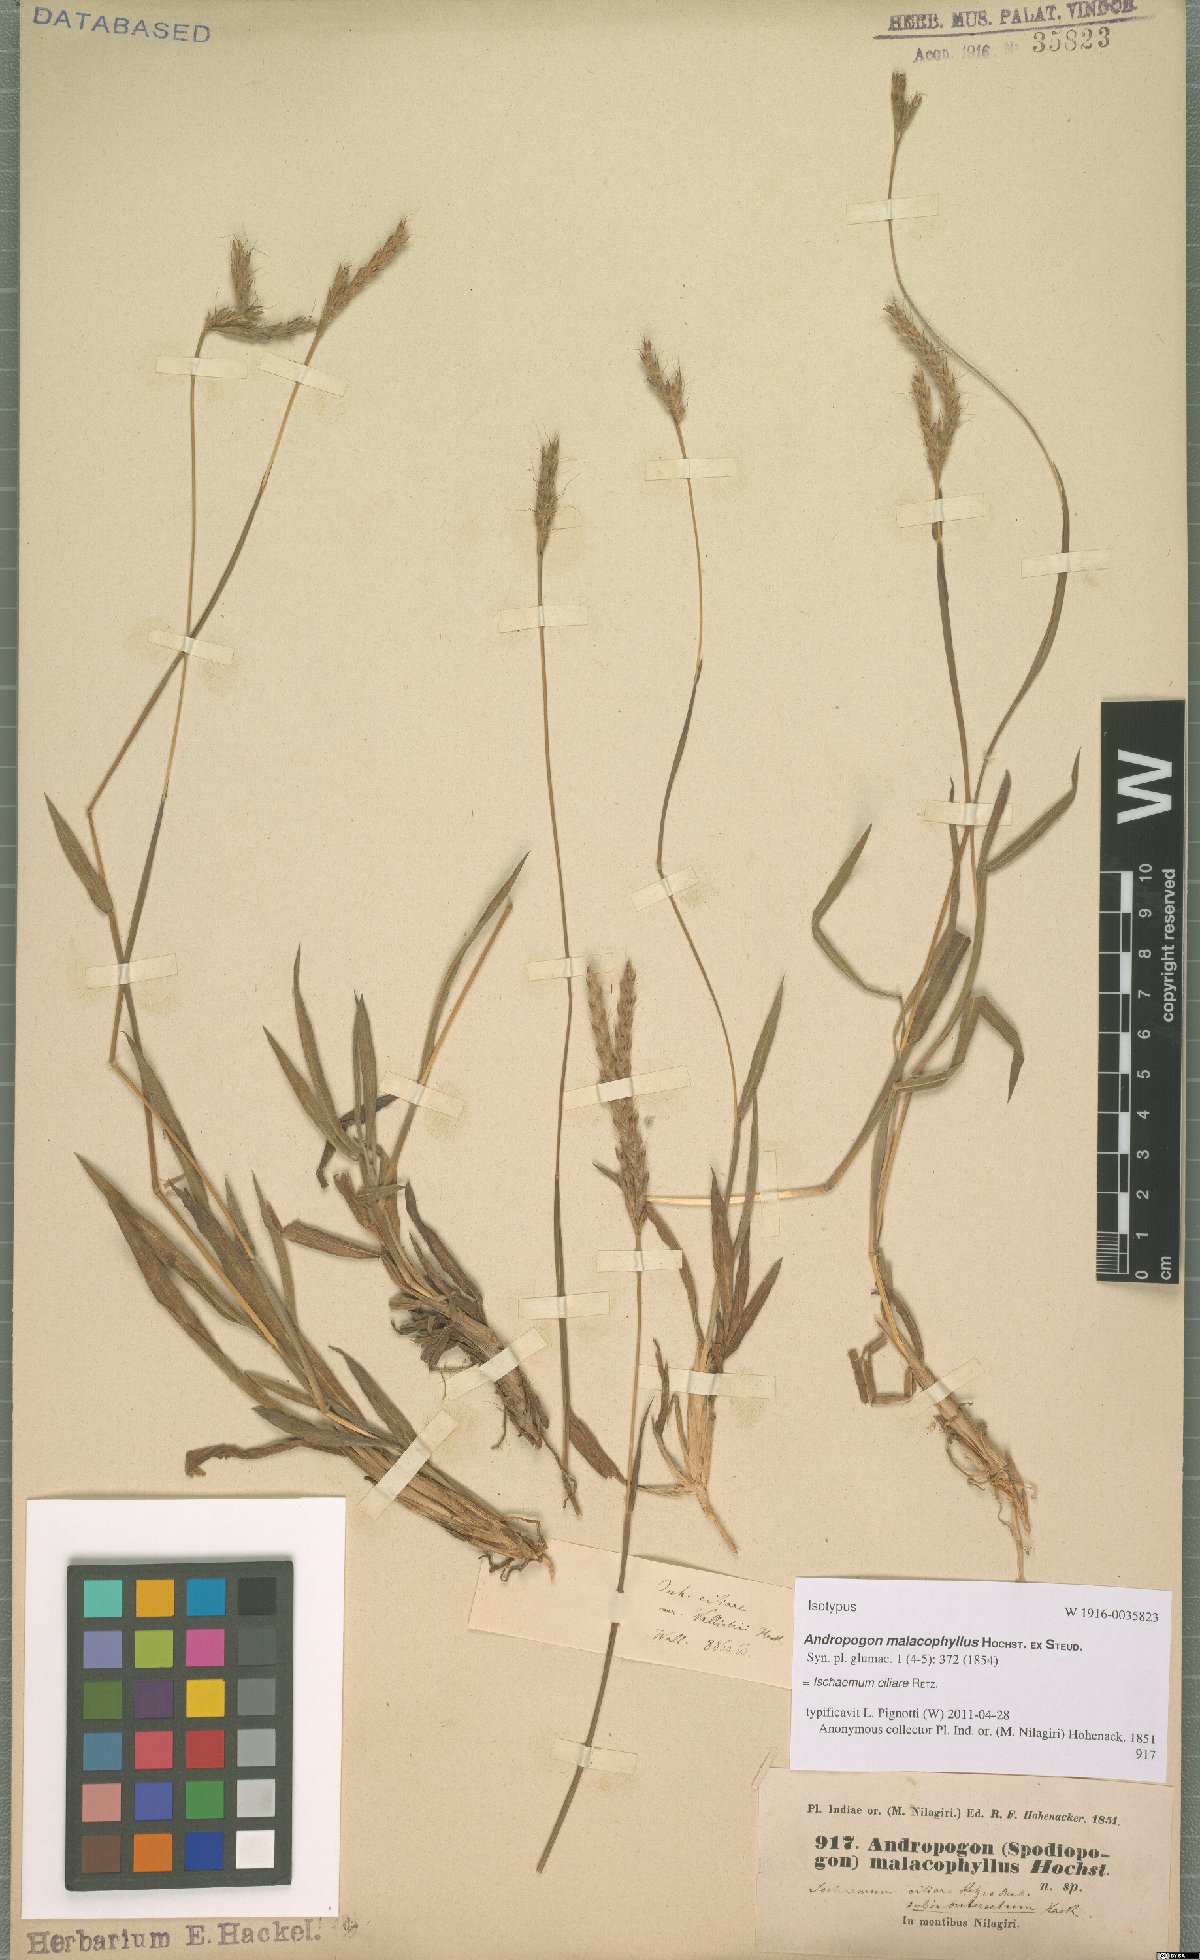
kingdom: Plantae
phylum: Tracheophyta
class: Liliopsida
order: Poales
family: Poaceae
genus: Ischaemum
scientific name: Ischaemum ciliare
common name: Grass
